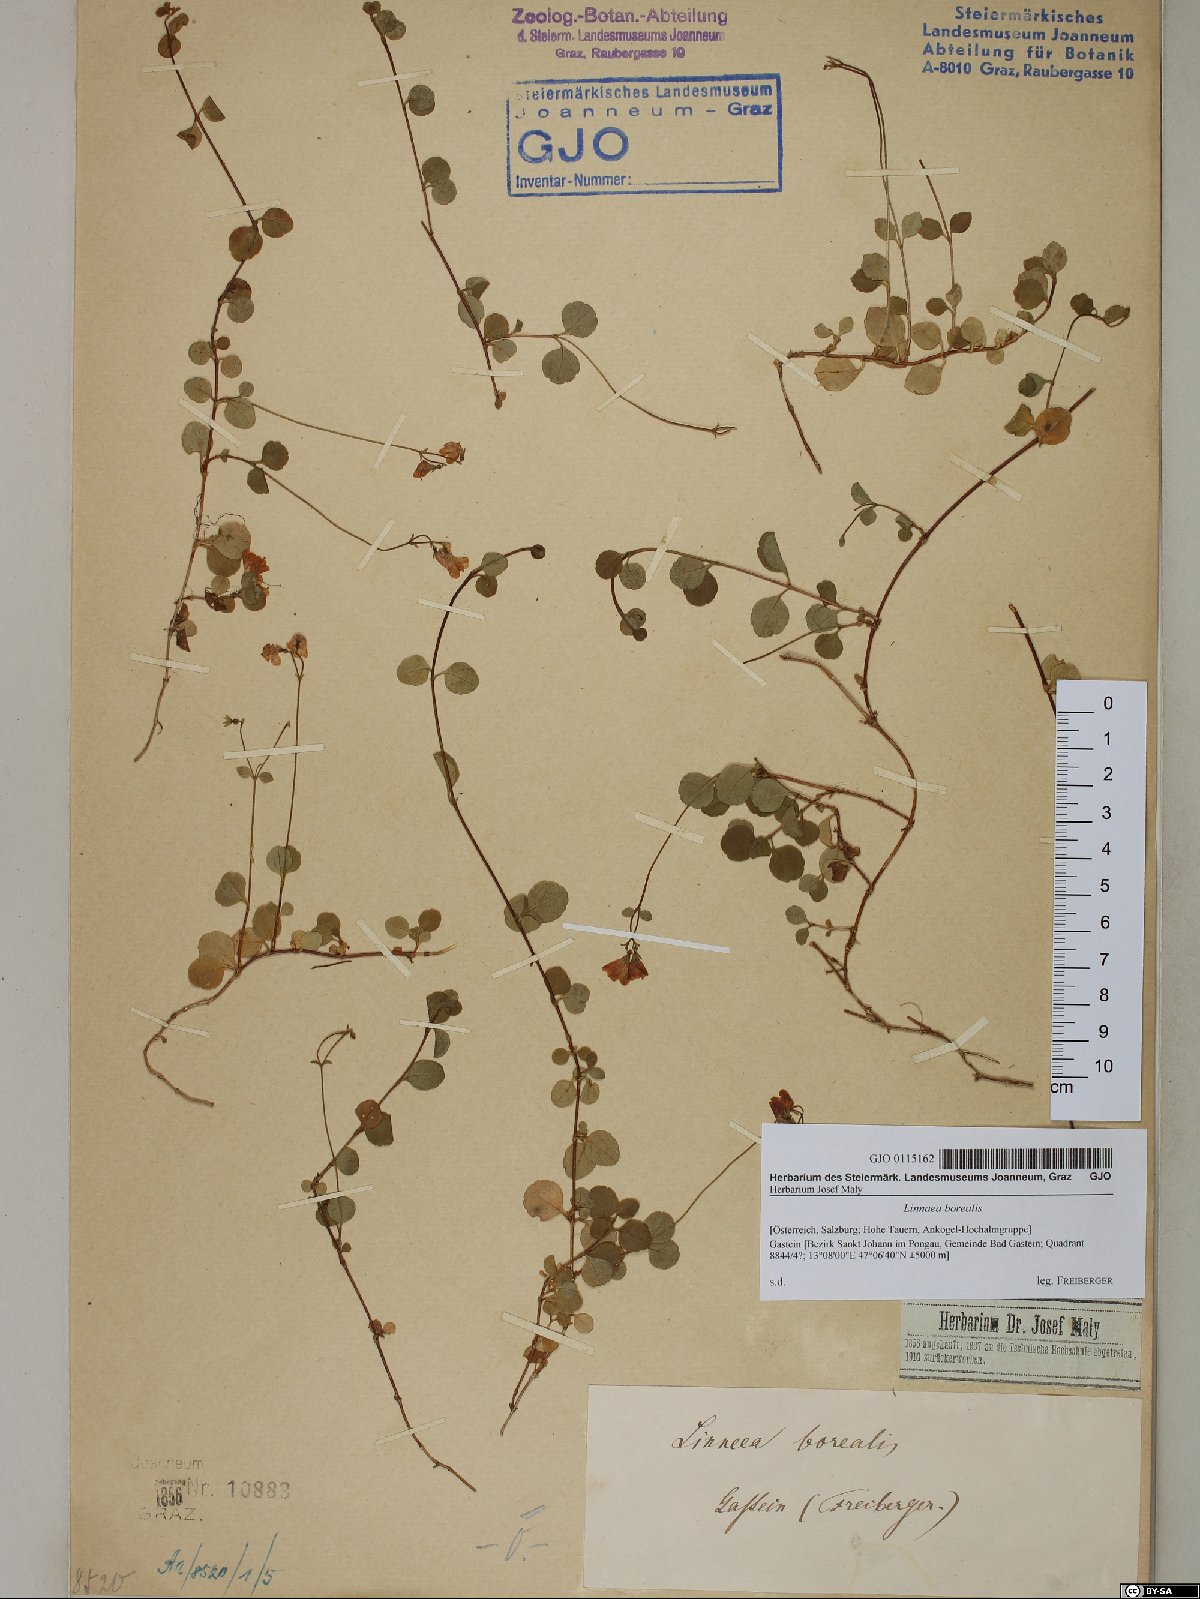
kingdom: Plantae
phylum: Tracheophyta
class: Magnoliopsida
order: Dipsacales
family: Caprifoliaceae
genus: Linnaea
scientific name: Linnaea borealis
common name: Twinflower
